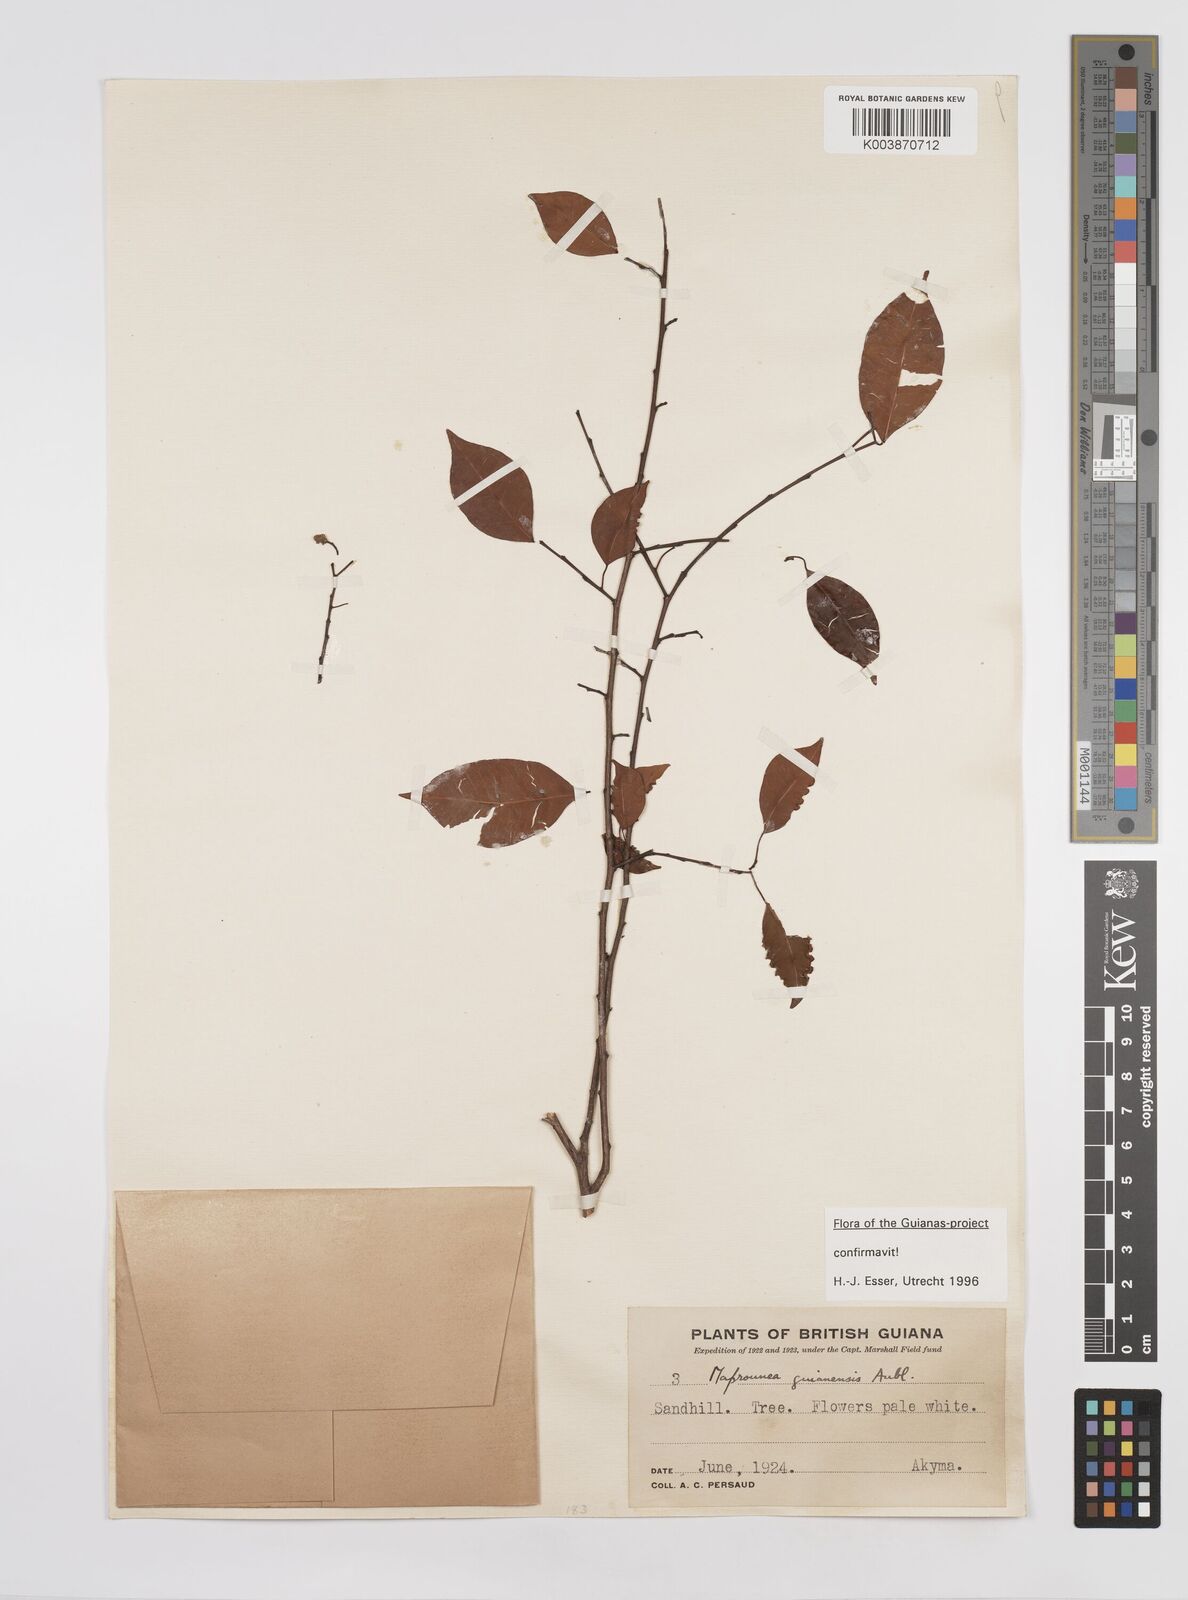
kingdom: Plantae
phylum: Tracheophyta
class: Magnoliopsida
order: Malpighiales
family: Euphorbiaceae
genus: Maprounea
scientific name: Maprounea guianensis
